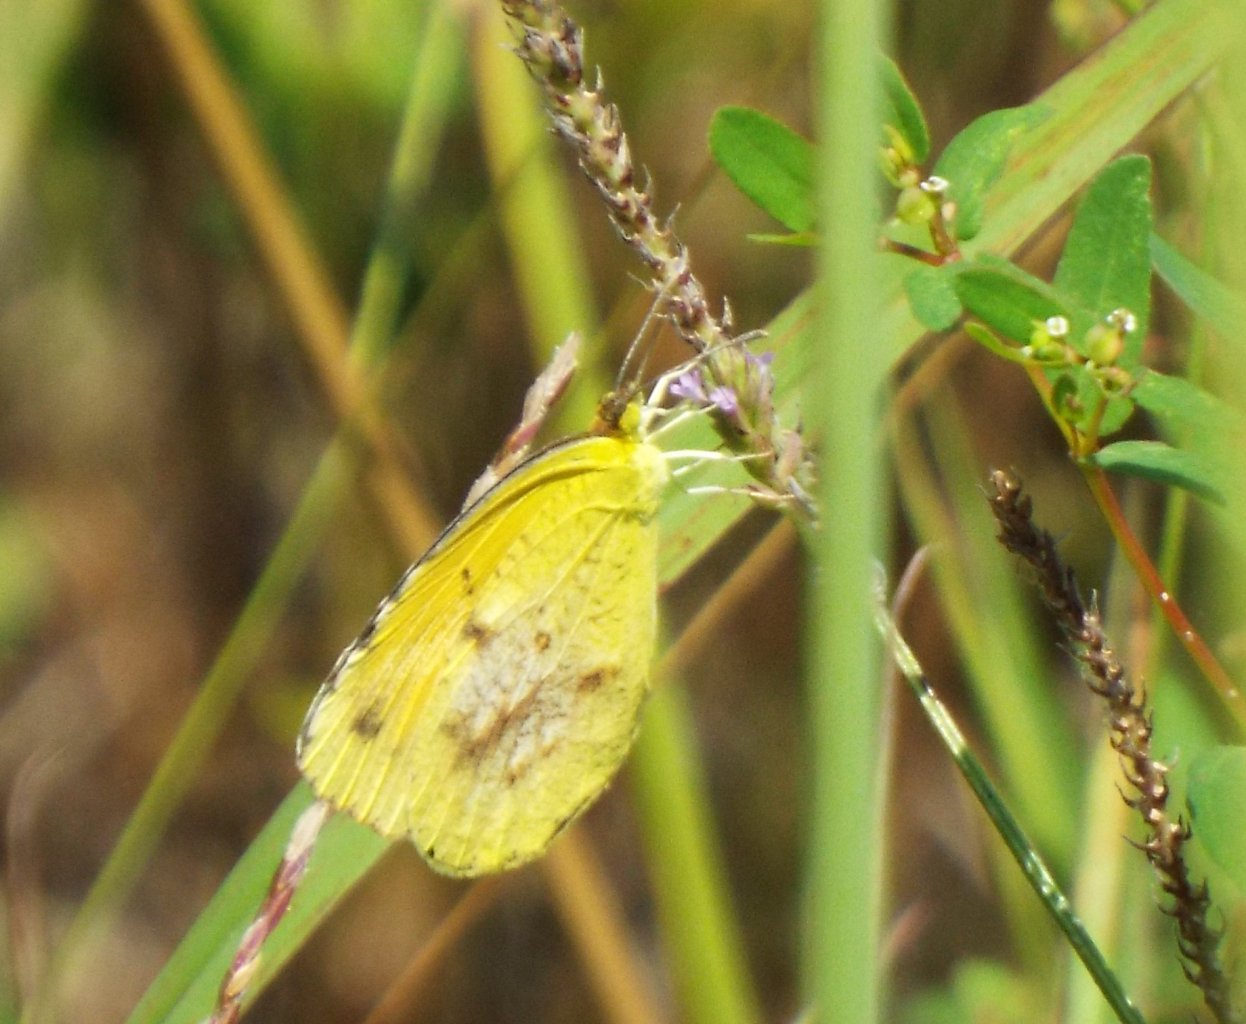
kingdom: Animalia
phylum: Arthropoda
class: Insecta
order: Lepidoptera
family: Pieridae
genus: Abaeis
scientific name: Abaeis nicippe
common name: Sleepy Orange
